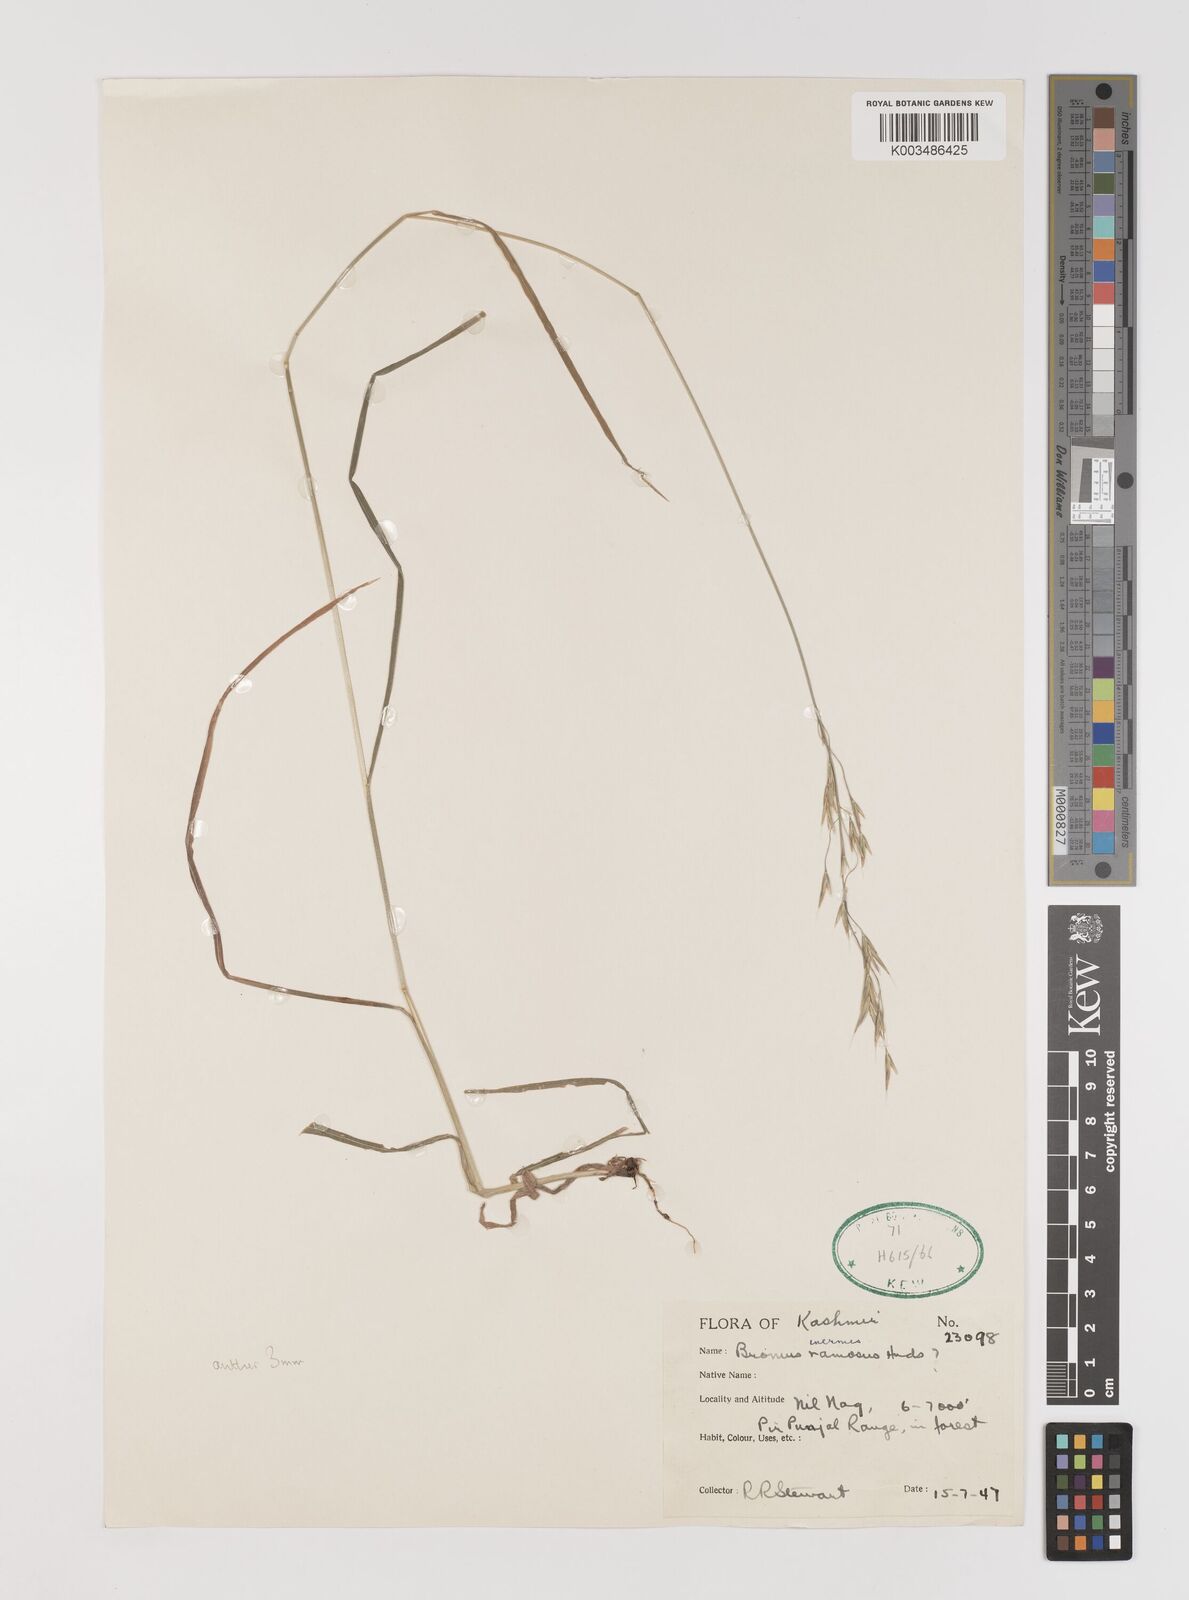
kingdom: Plantae
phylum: Tracheophyta
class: Liliopsida
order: Poales
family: Poaceae
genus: Bromus
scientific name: Bromus confinis
